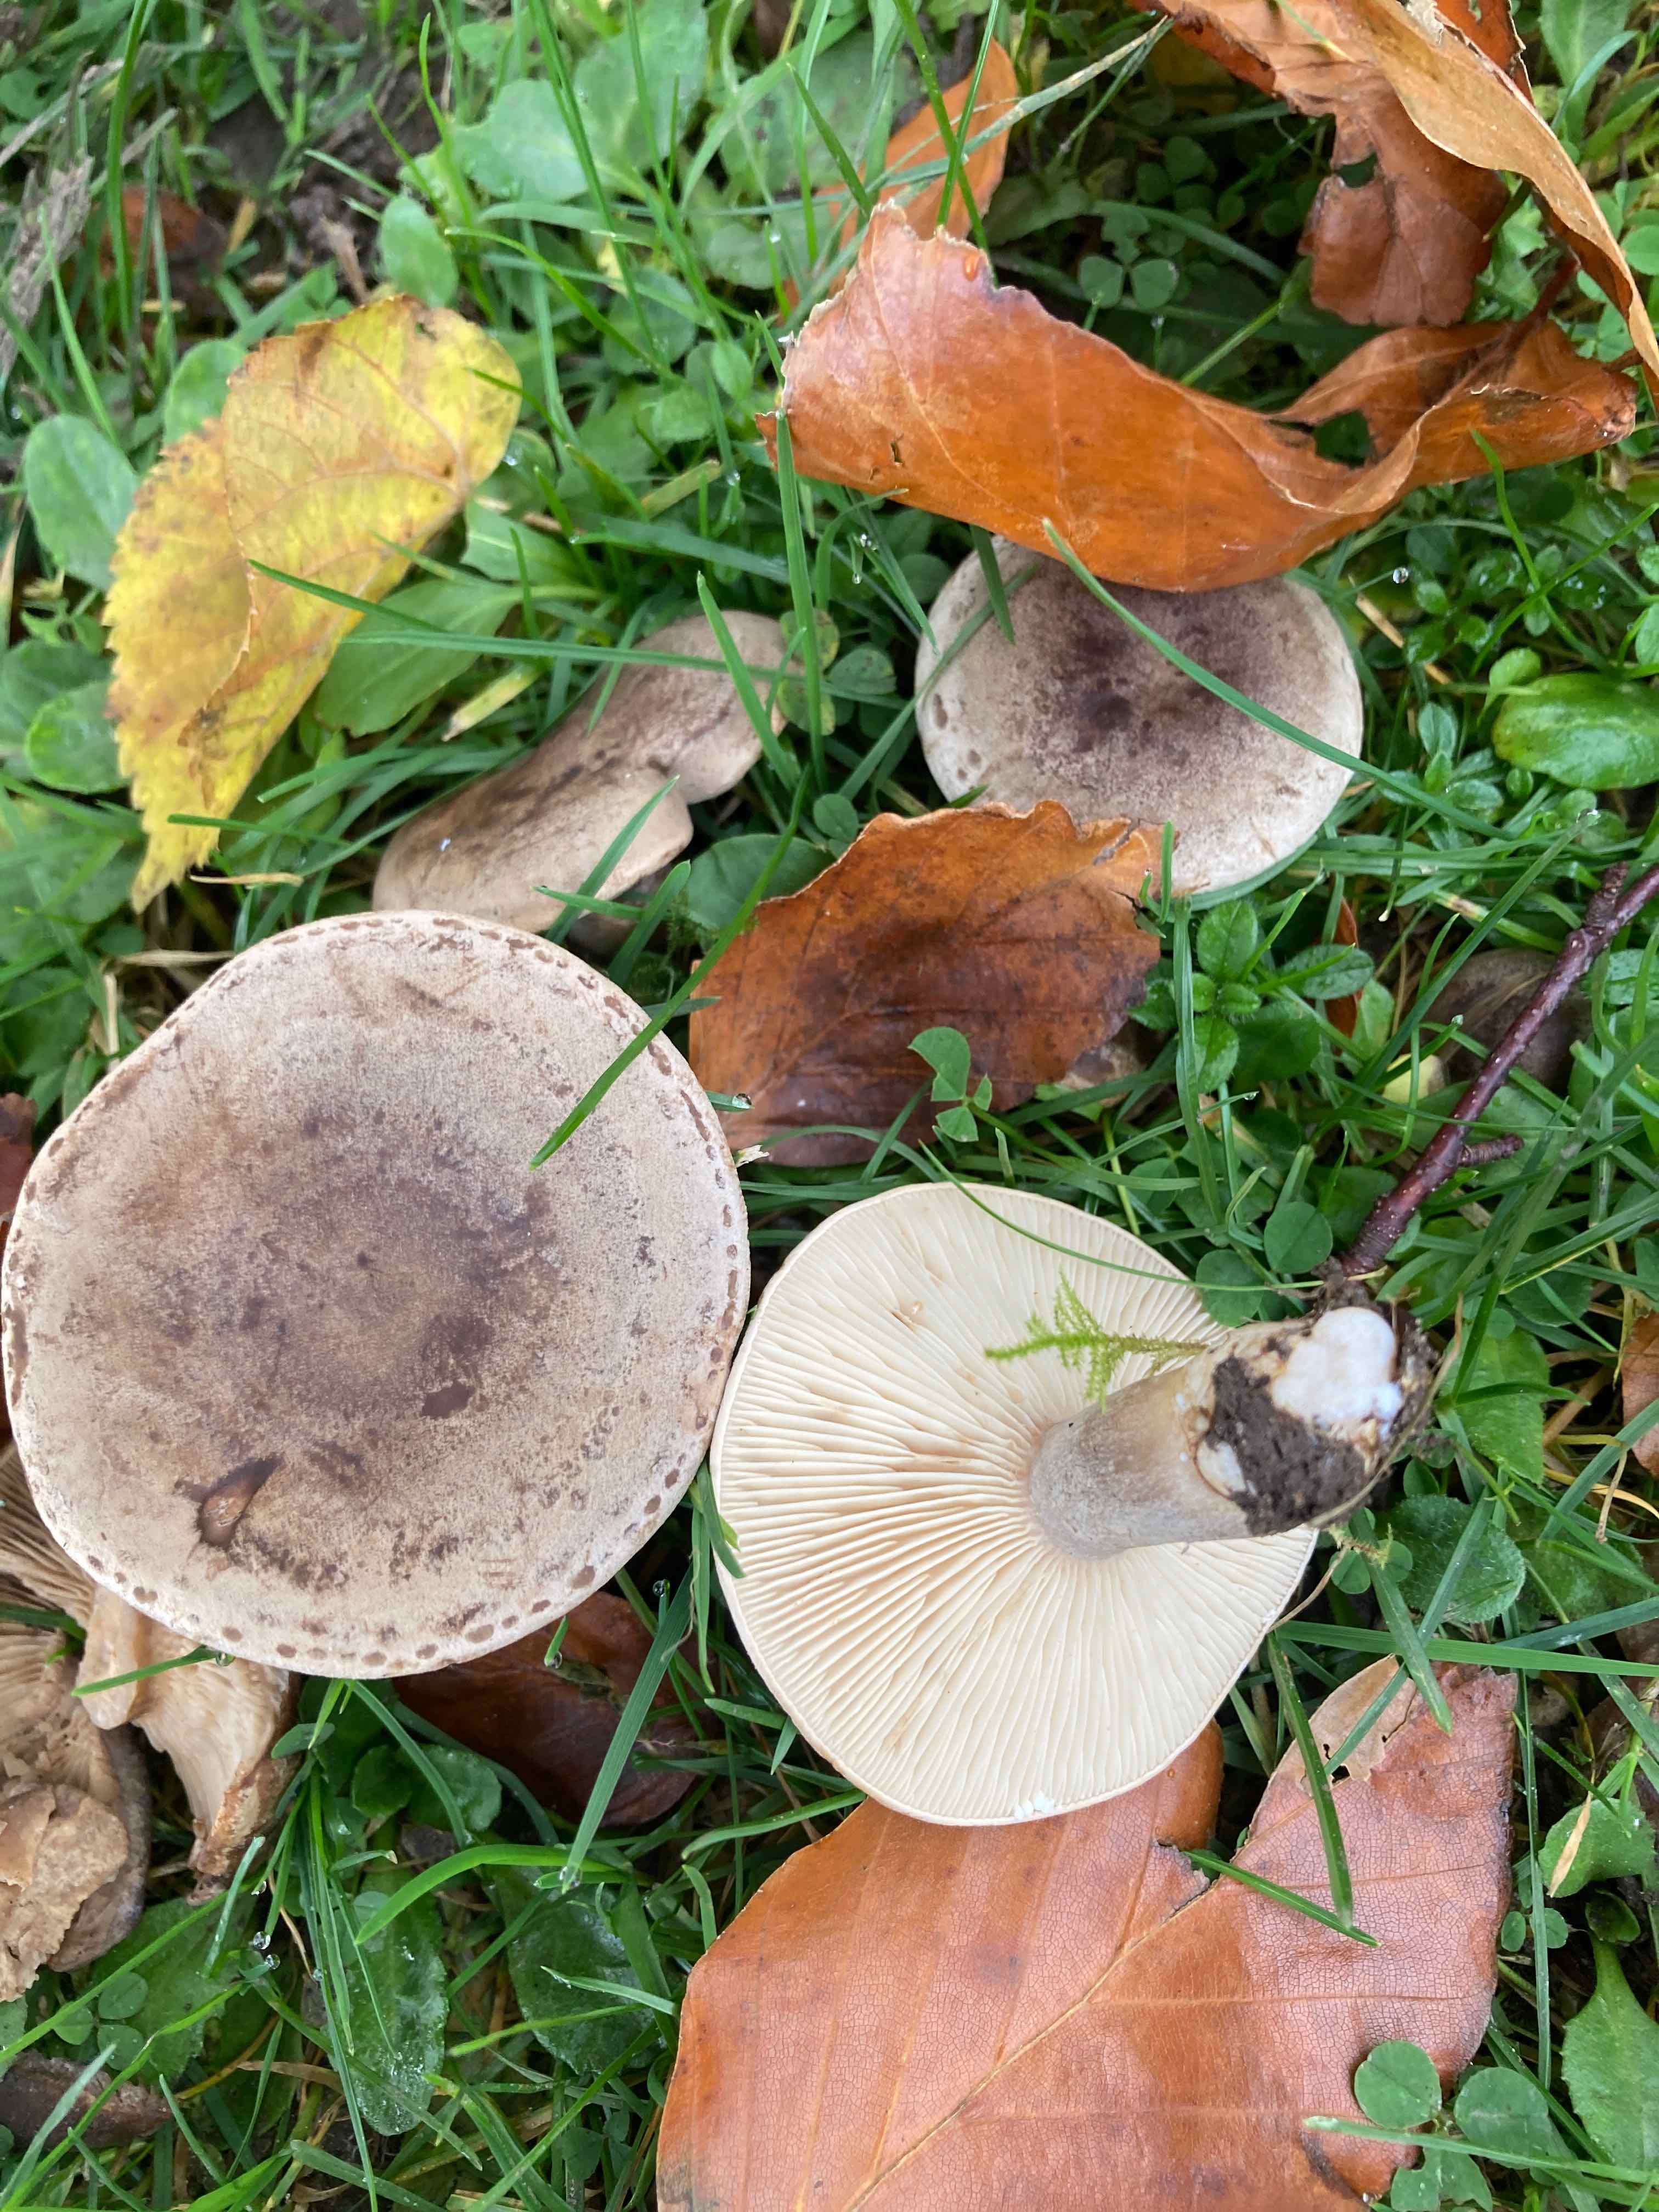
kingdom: Fungi
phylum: Basidiomycota
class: Agaricomycetes
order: Russulales
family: Russulaceae
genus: Lactarius
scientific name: Lactarius fluens
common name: lysrandet mælkehat
